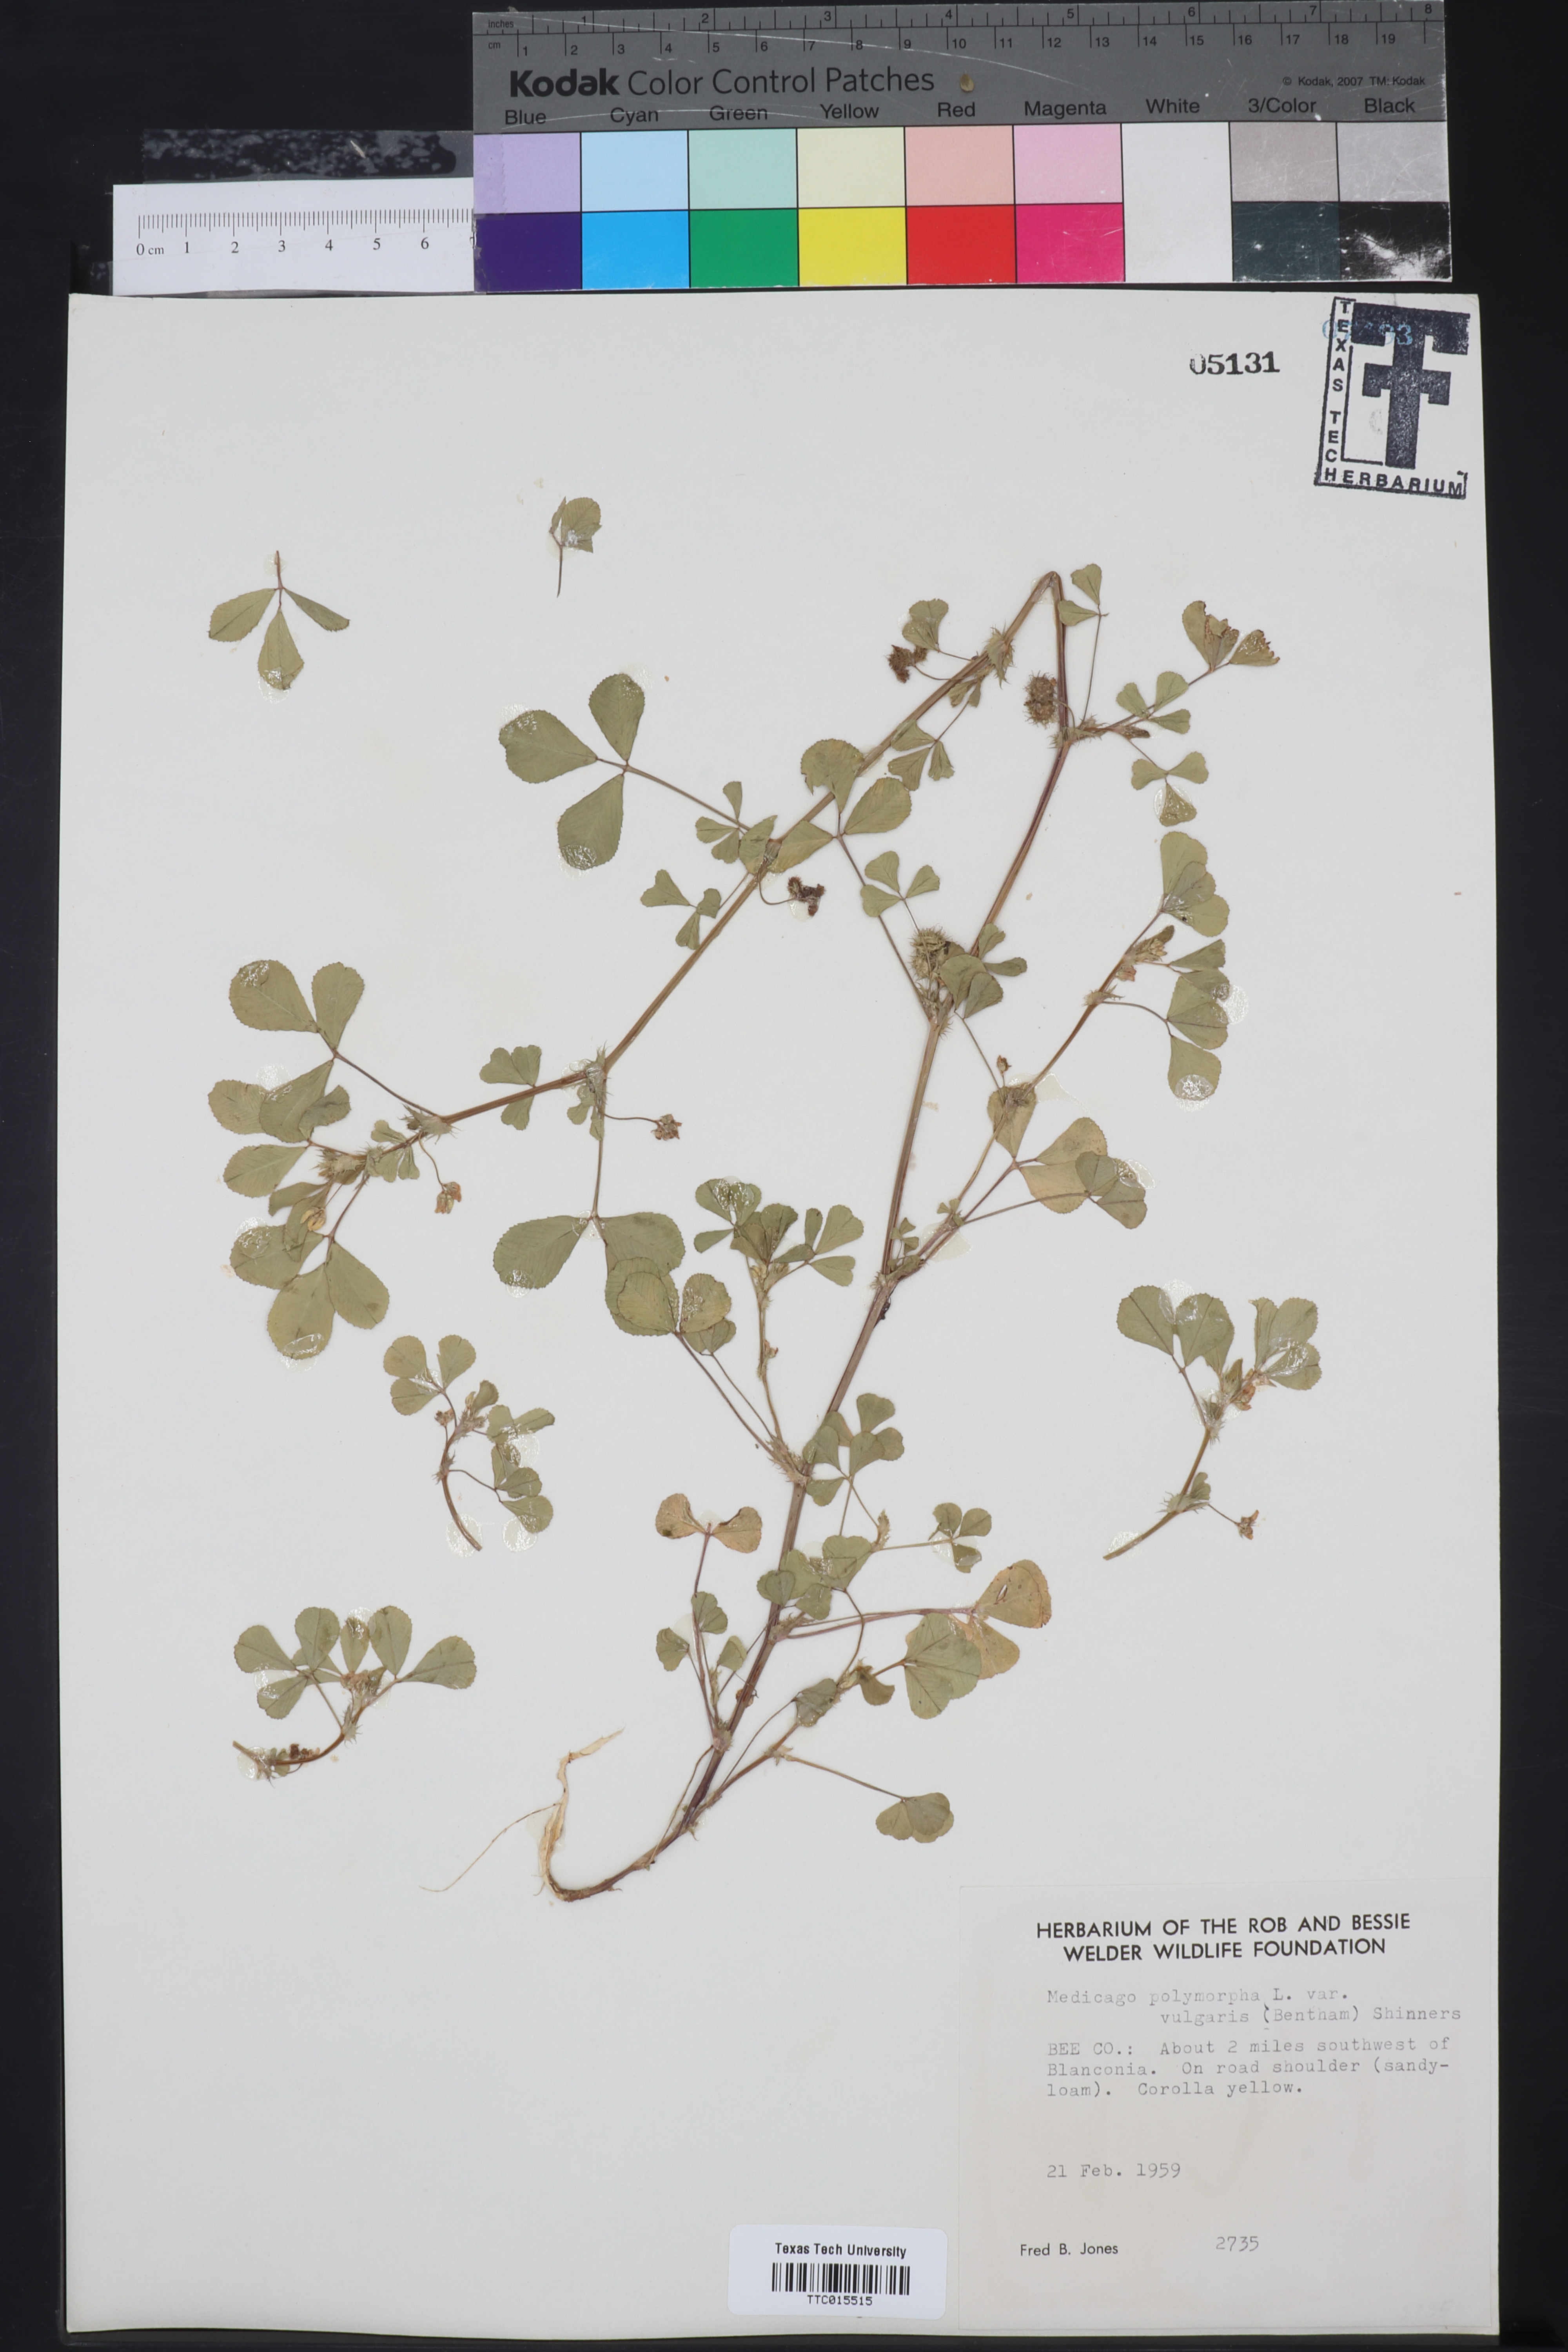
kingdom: Plantae
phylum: Tracheophyta
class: Magnoliopsida
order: Fabales
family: Fabaceae
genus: Medicago
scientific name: Medicago polymorpha
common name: Burclover
